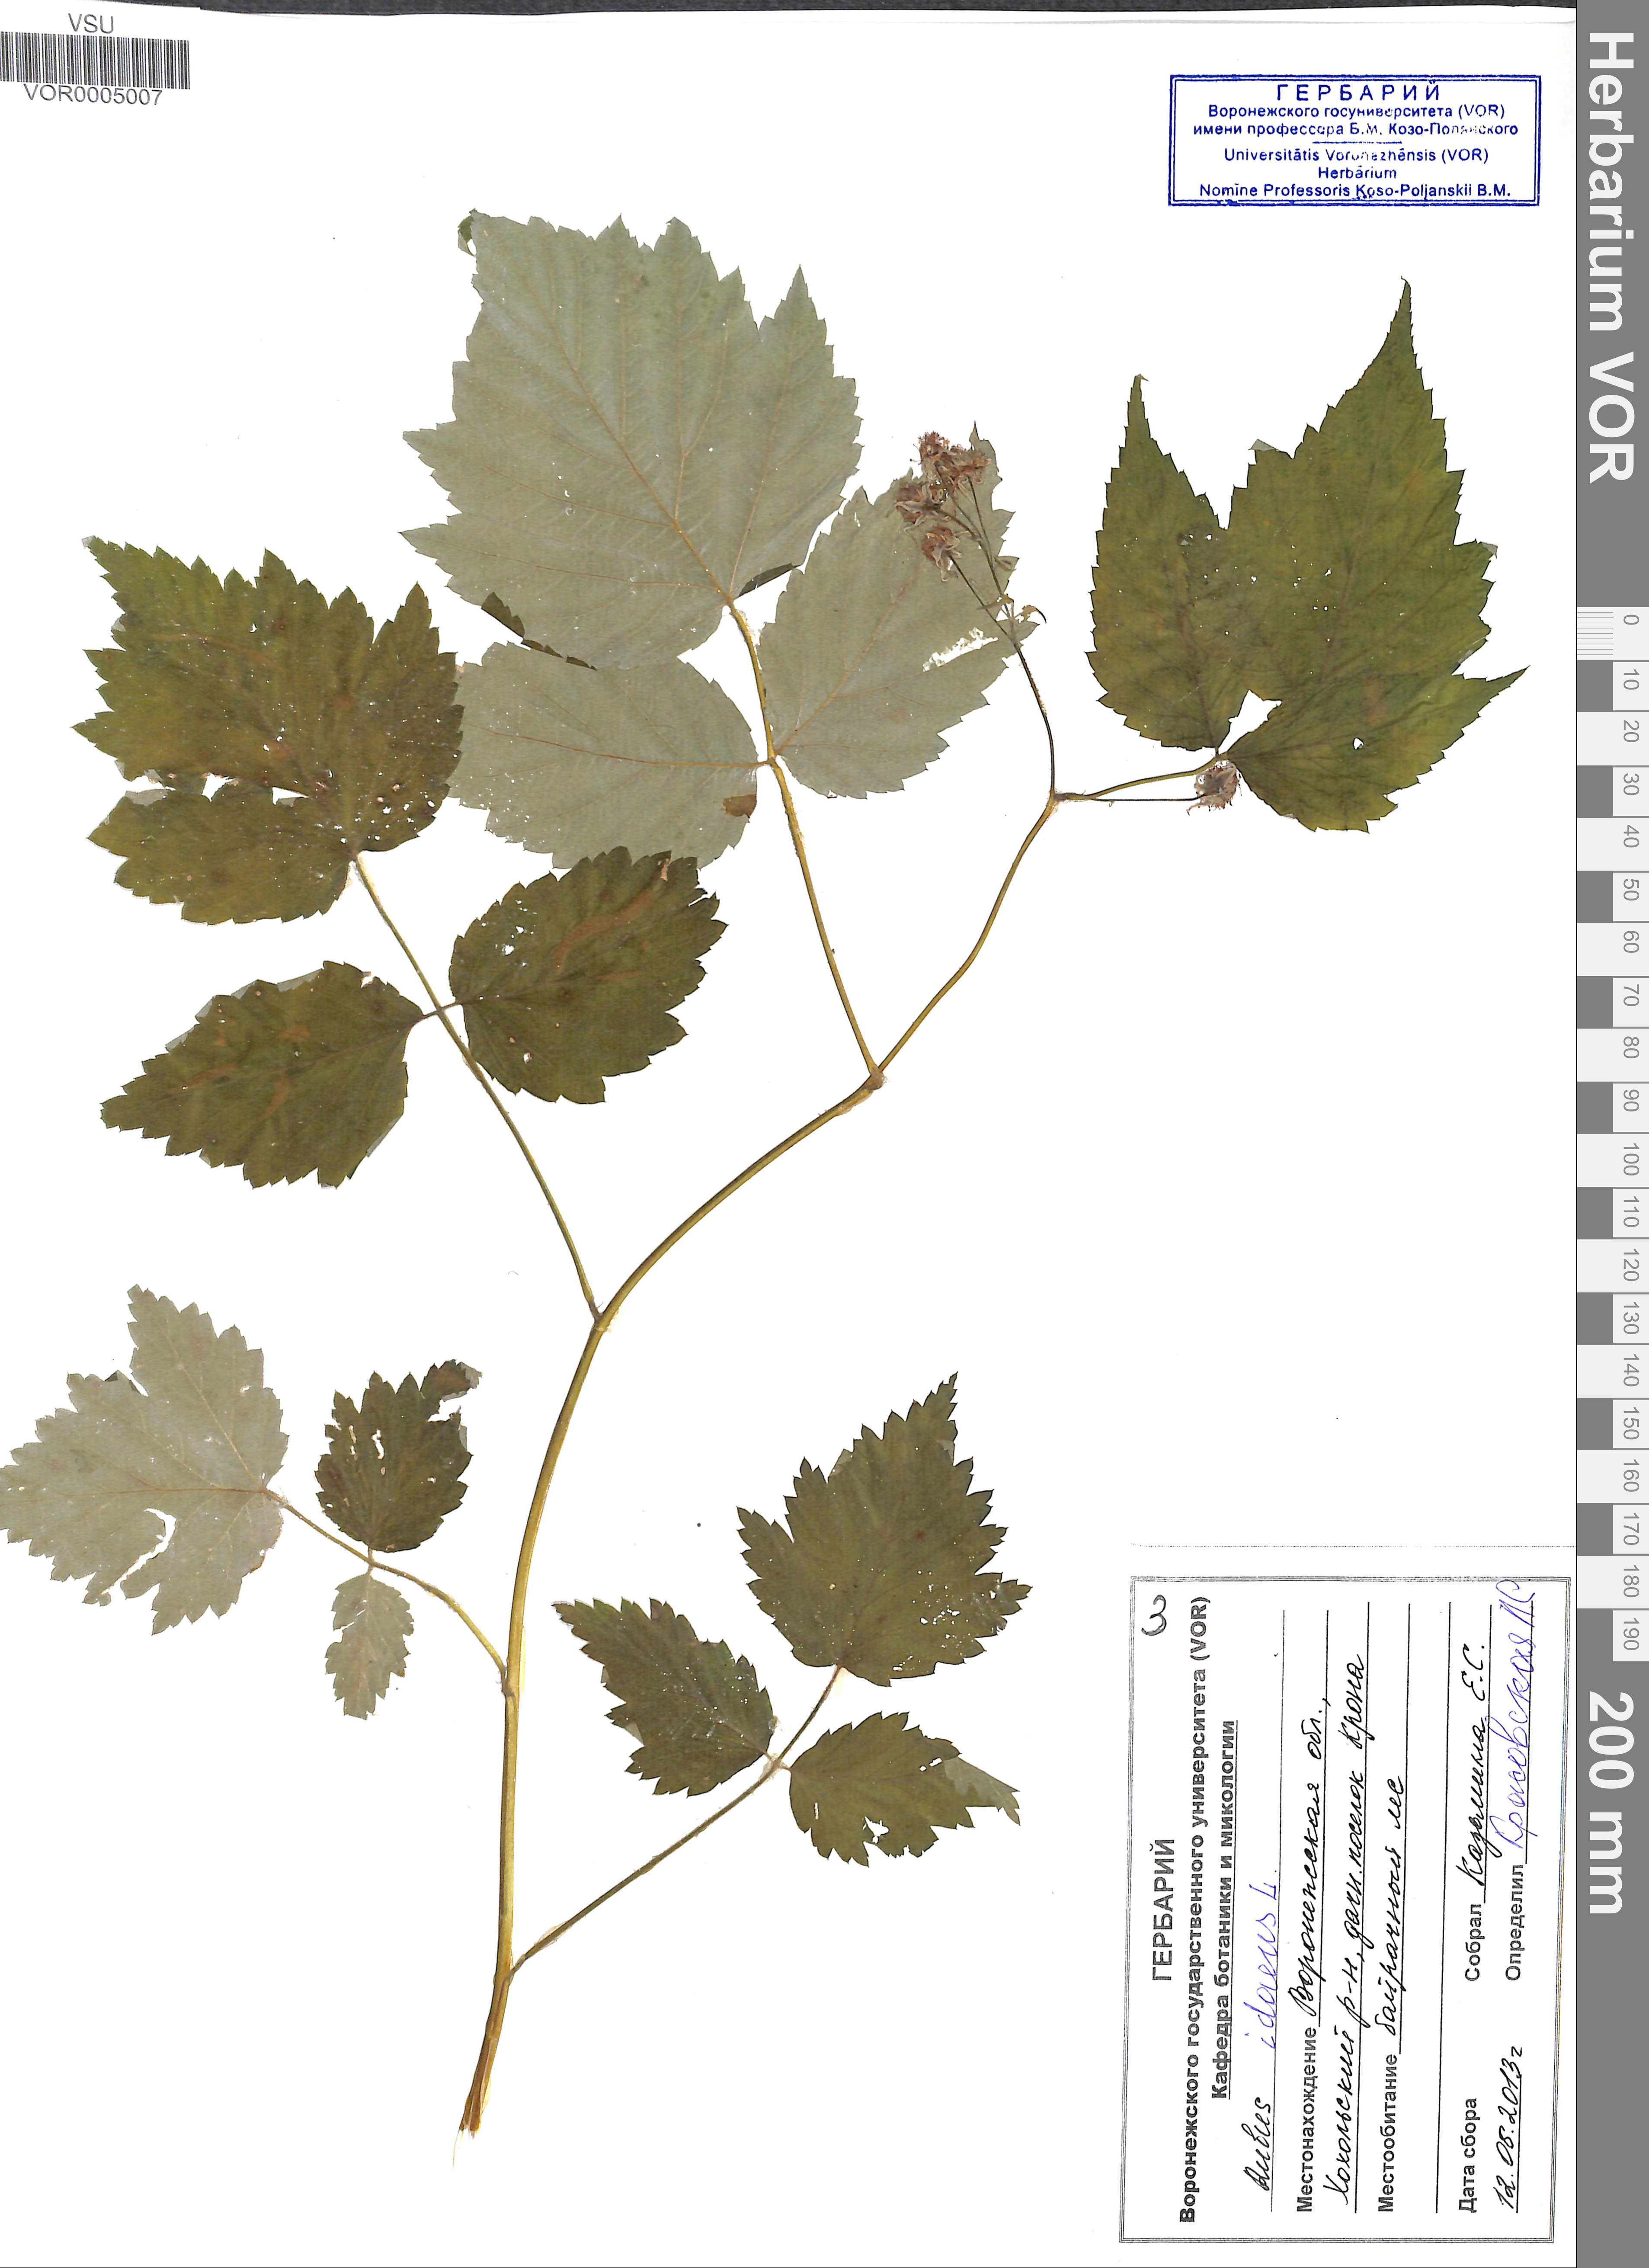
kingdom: Plantae
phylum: Tracheophyta
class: Magnoliopsida
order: Rosales
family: Rosaceae
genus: Rubus
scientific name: Rubus idaeus
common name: Raspberry
